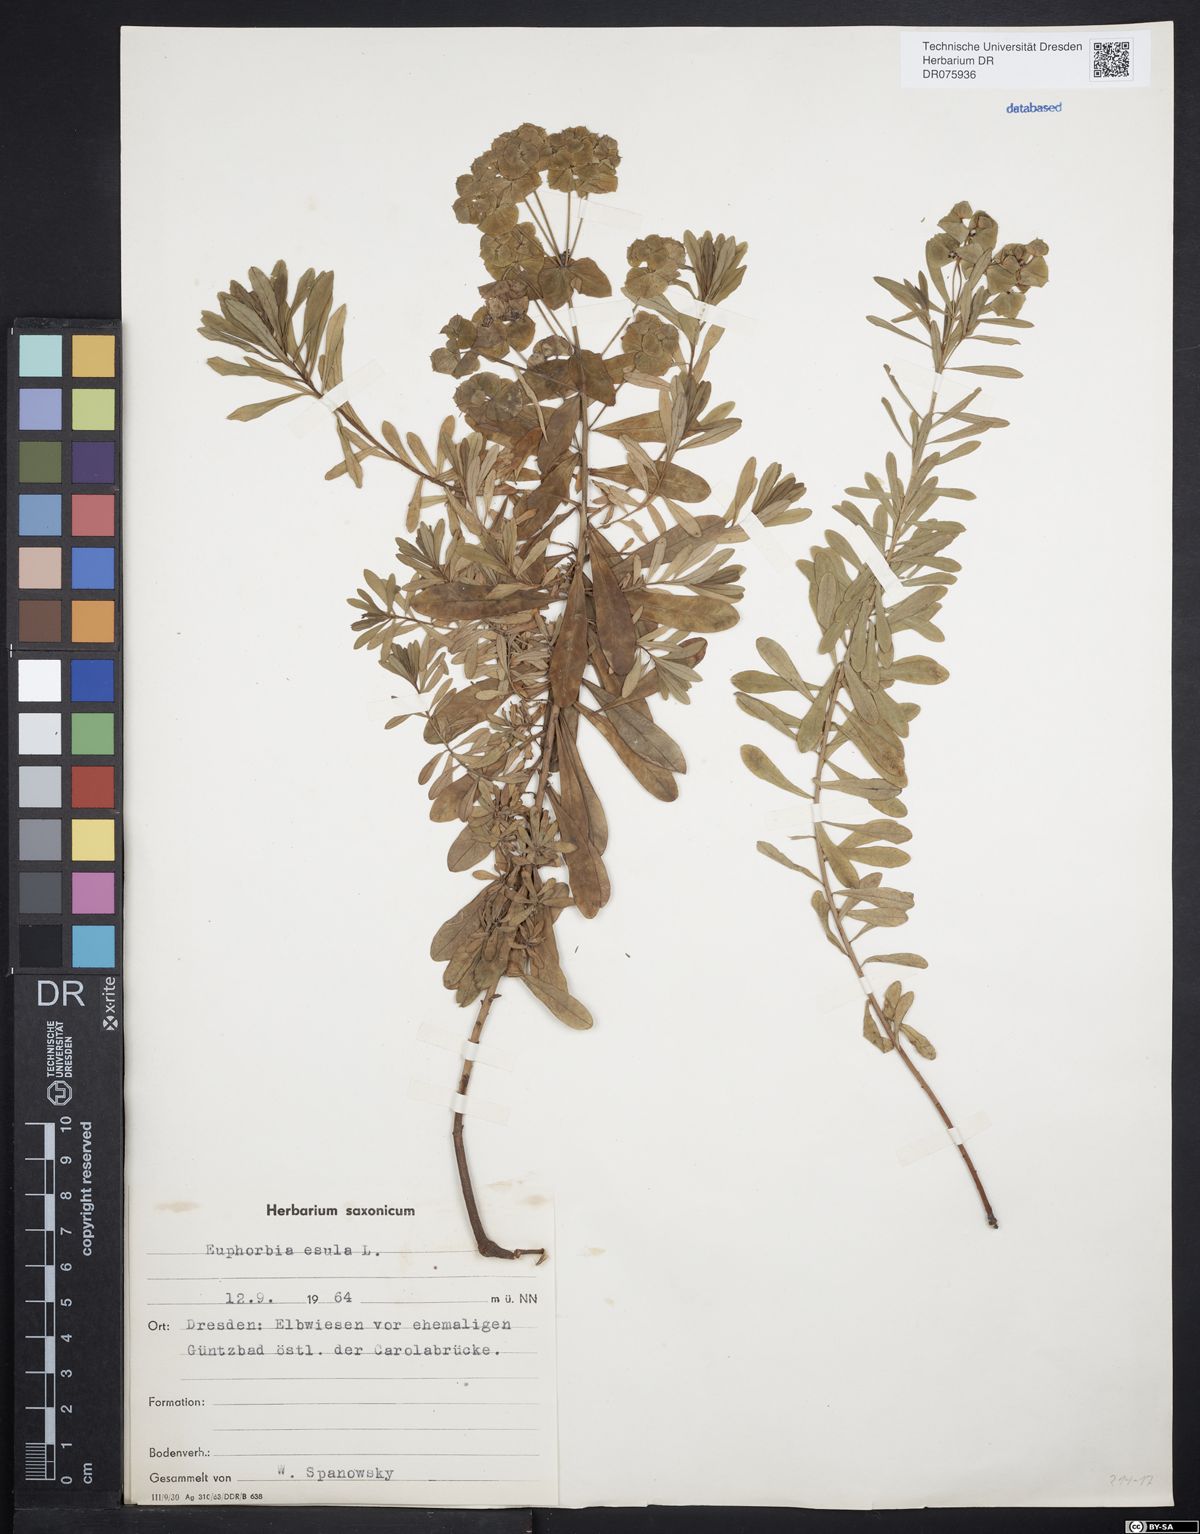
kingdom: Plantae
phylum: Tracheophyta
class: Magnoliopsida
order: Malpighiales
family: Euphorbiaceae
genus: Euphorbia
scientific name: Euphorbia esula
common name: Leafy spurge
